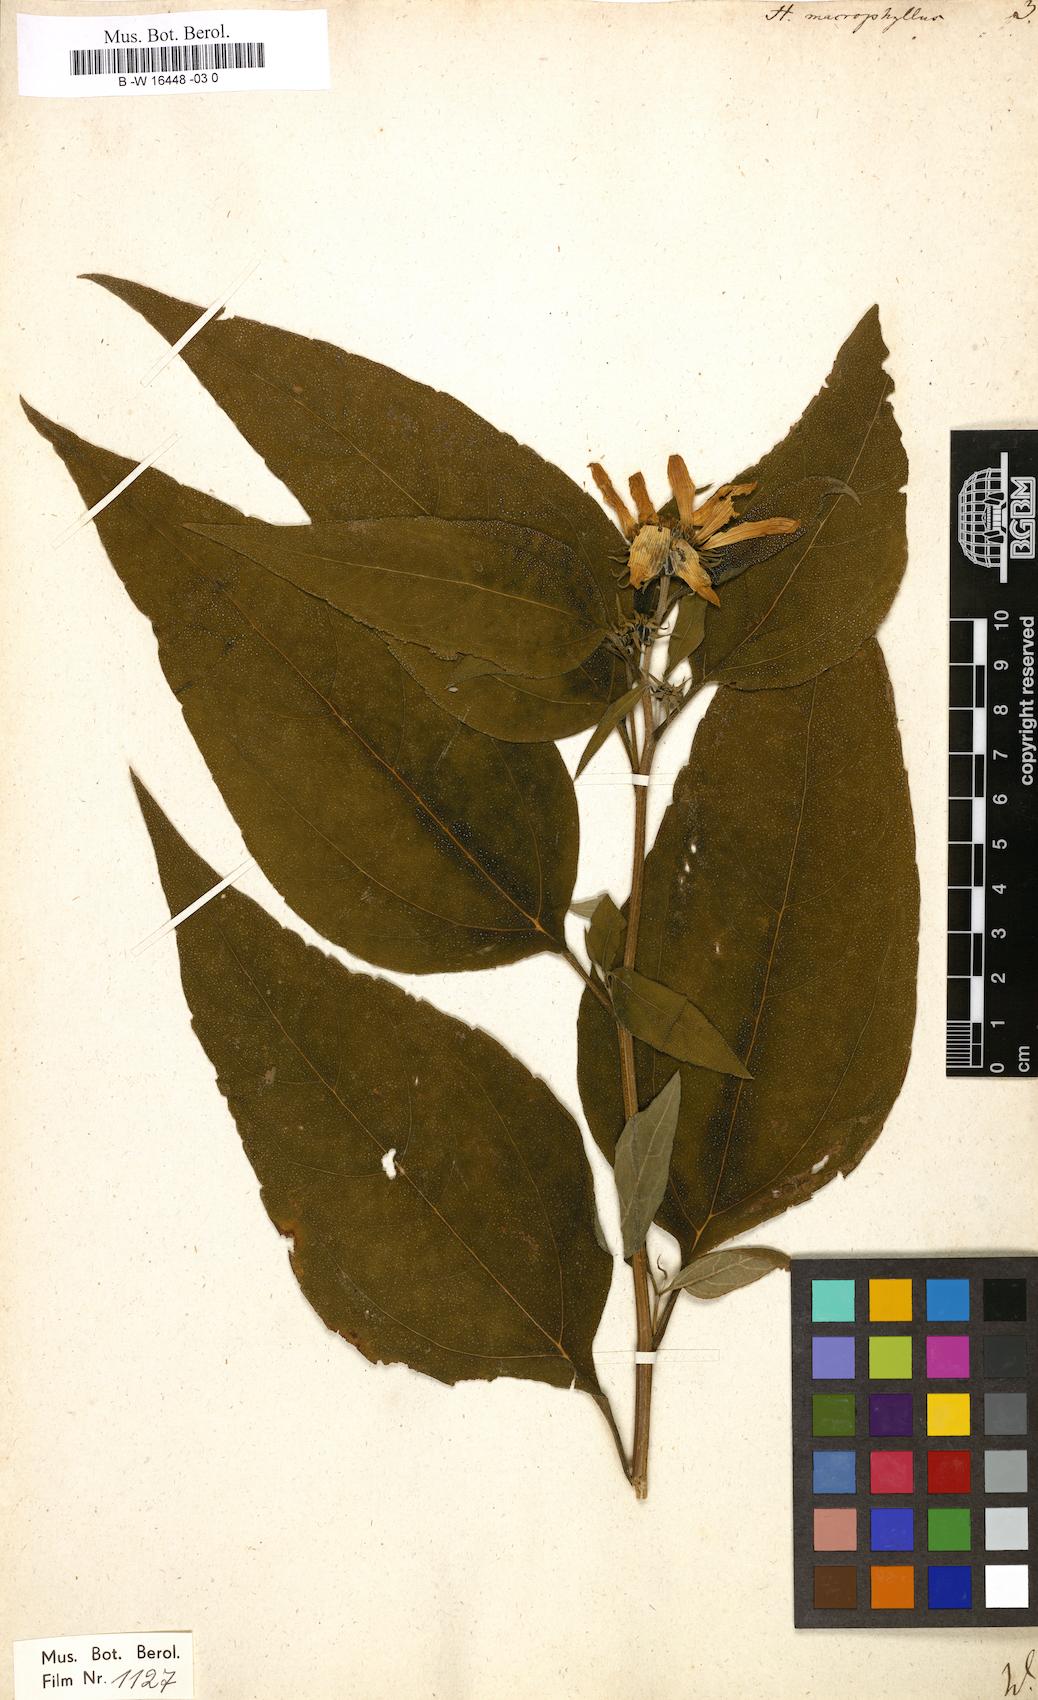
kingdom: Plantae
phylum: Tracheophyta
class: Magnoliopsida
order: Asterales
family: Asteraceae
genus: Helianthus
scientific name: Helianthus strumosus
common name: Pale-leaved sunflower
